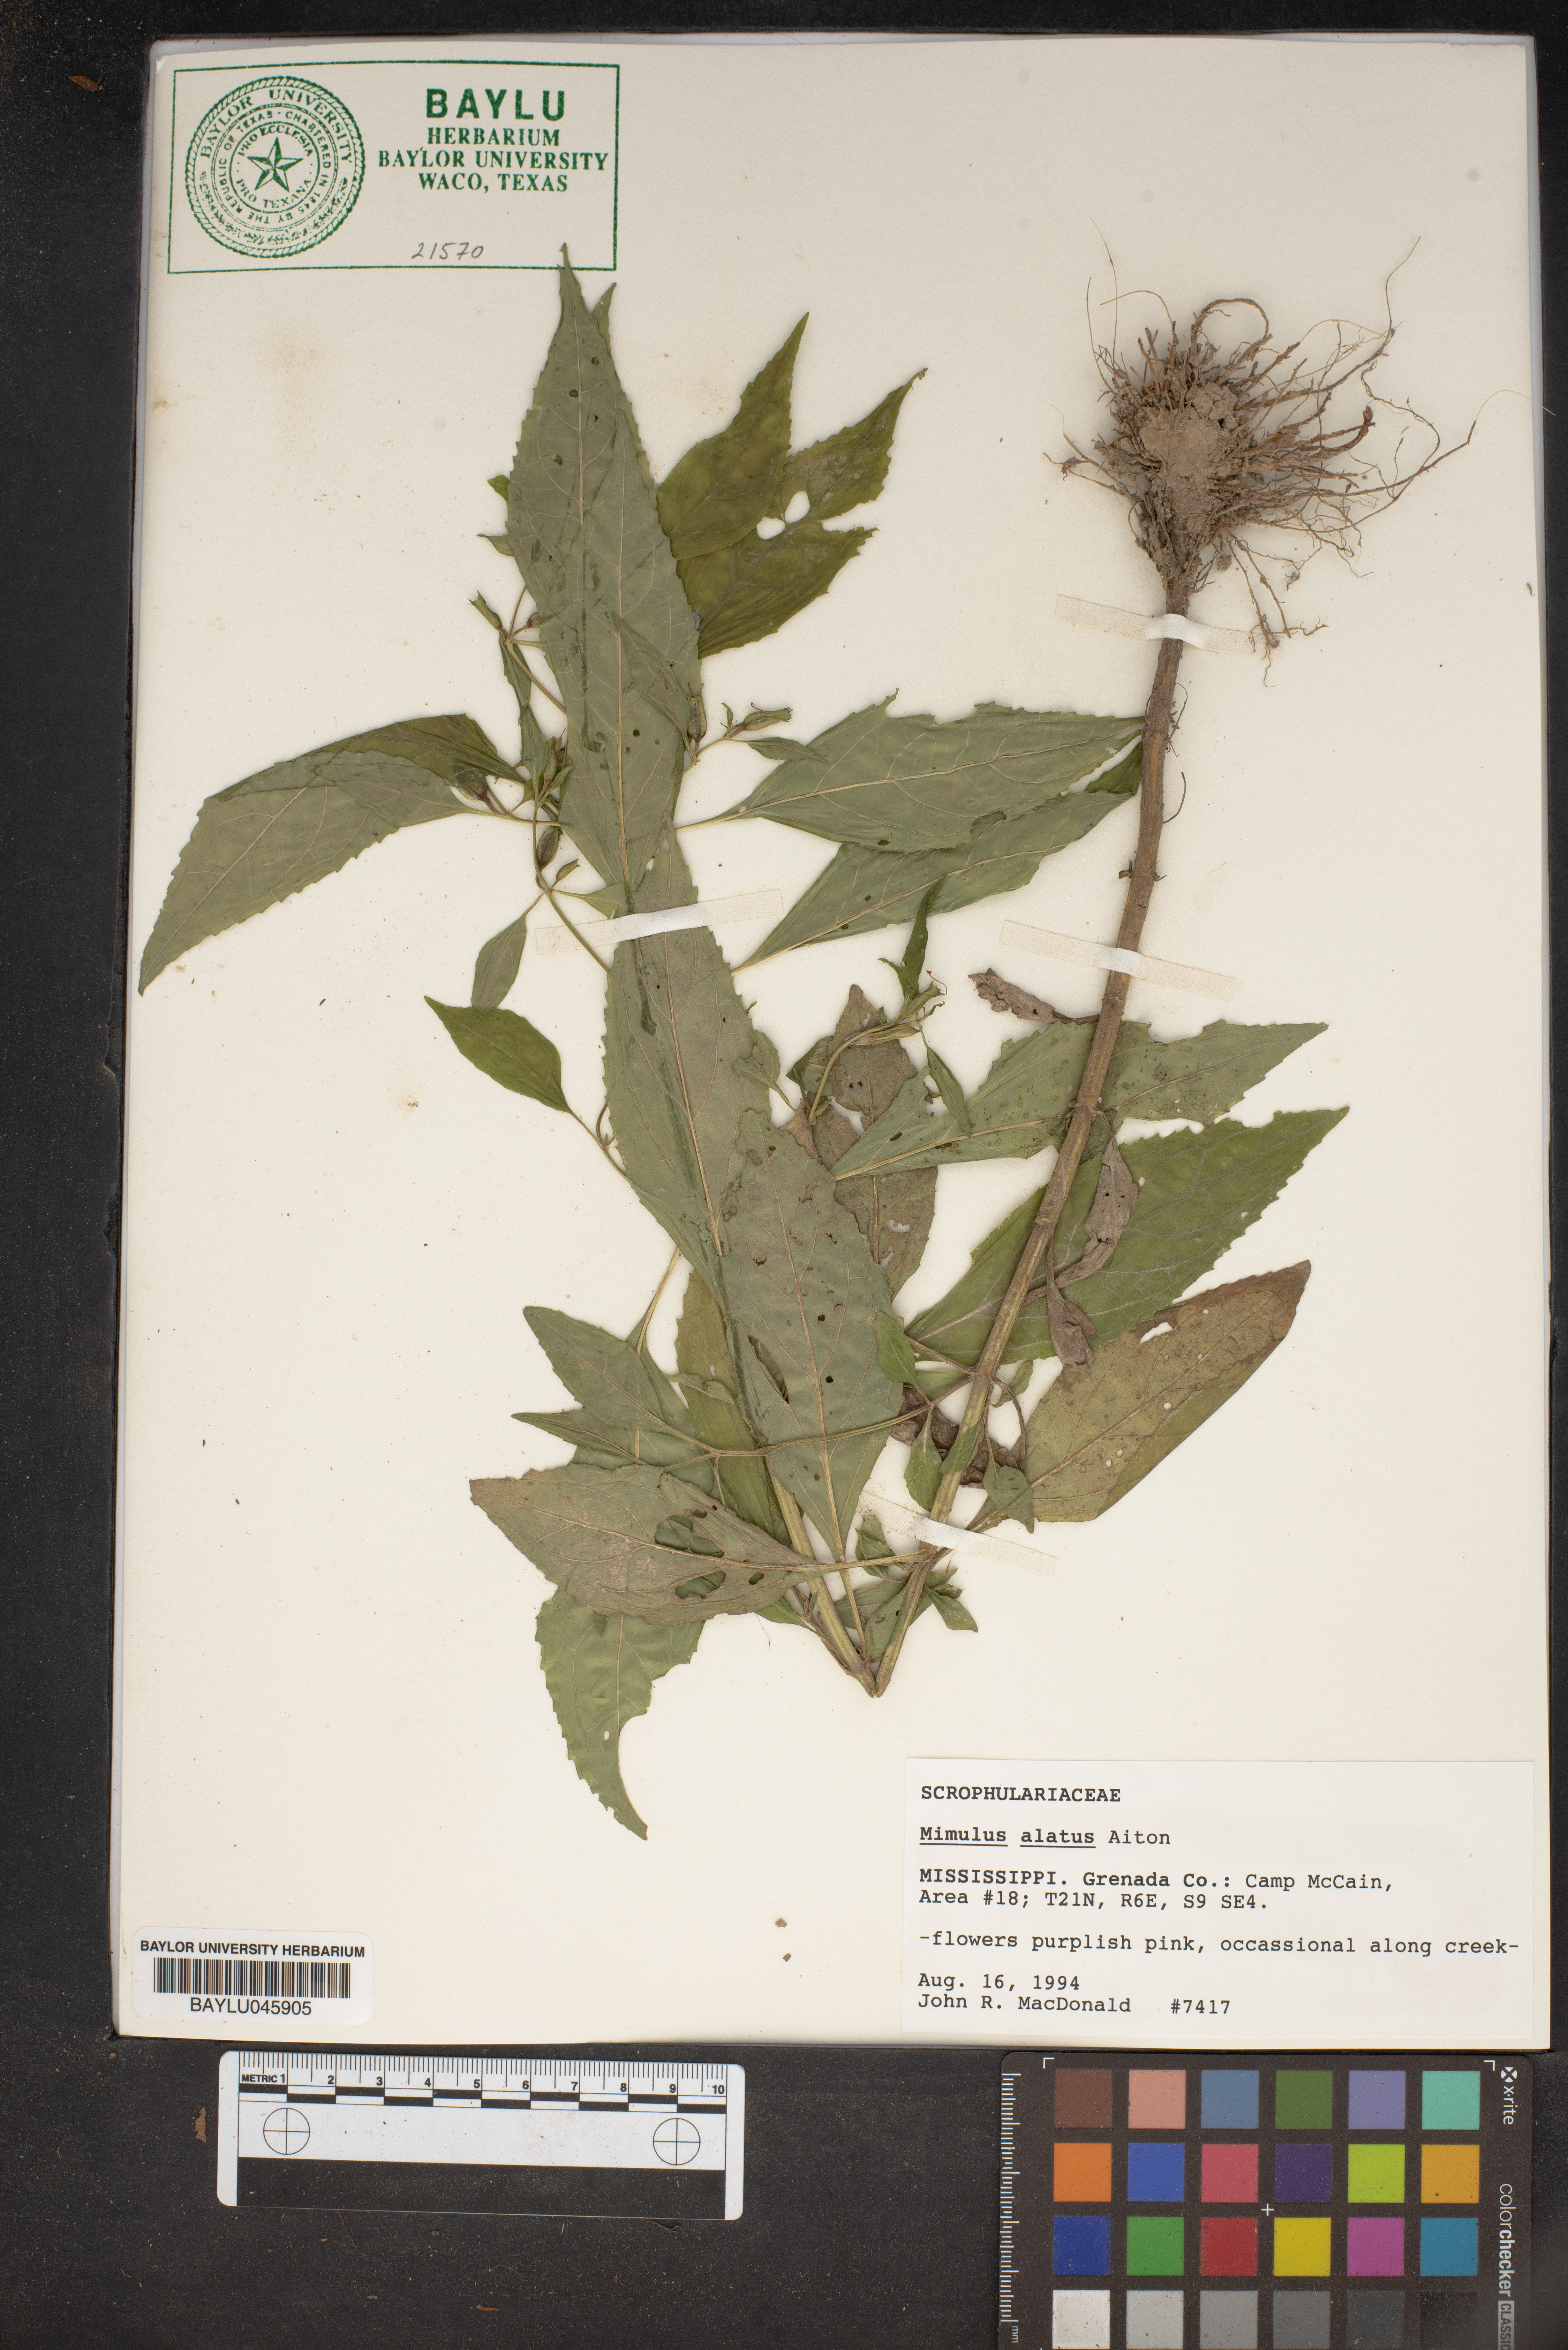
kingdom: Plantae
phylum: Tracheophyta
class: Magnoliopsida
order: Lamiales
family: Phrymaceae
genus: Mimulus
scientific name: Mimulus alatus
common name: Sharp-wing monkey-flower
